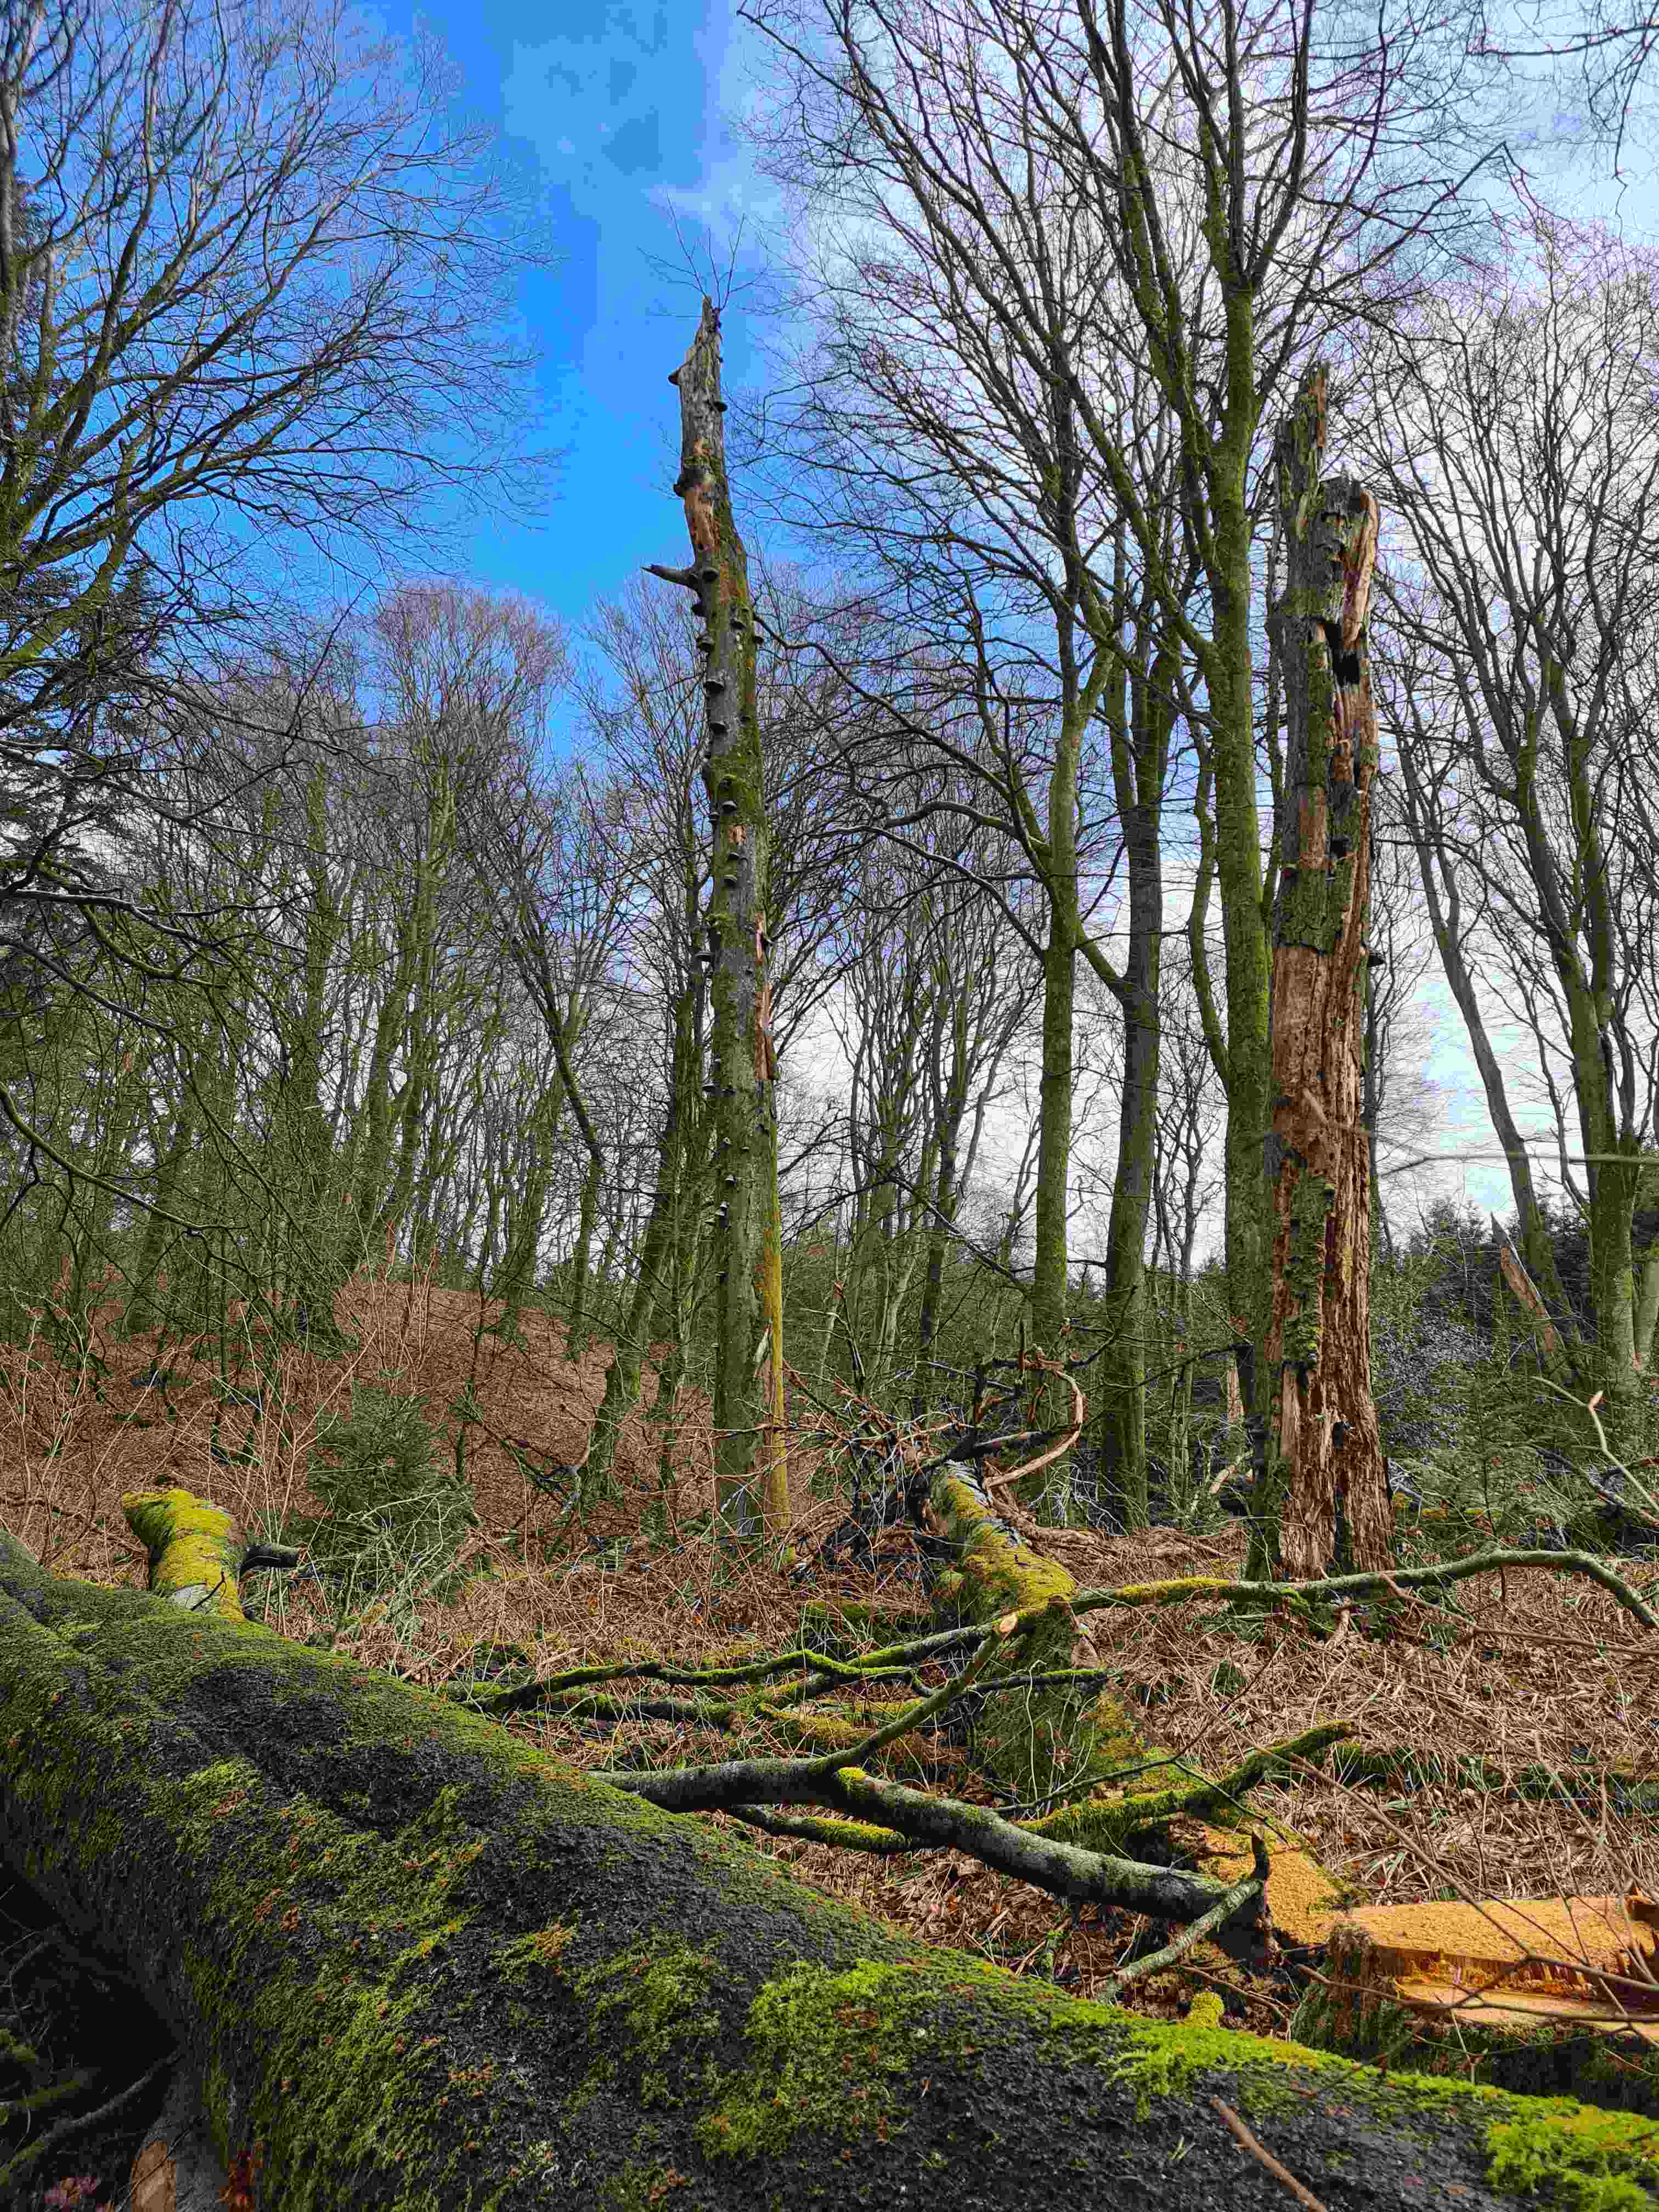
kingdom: Fungi
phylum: Basidiomycota
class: Agaricomycetes
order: Polyporales
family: Polyporaceae
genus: Fomes
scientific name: Fomes fomentarius
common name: tøndersvamp
